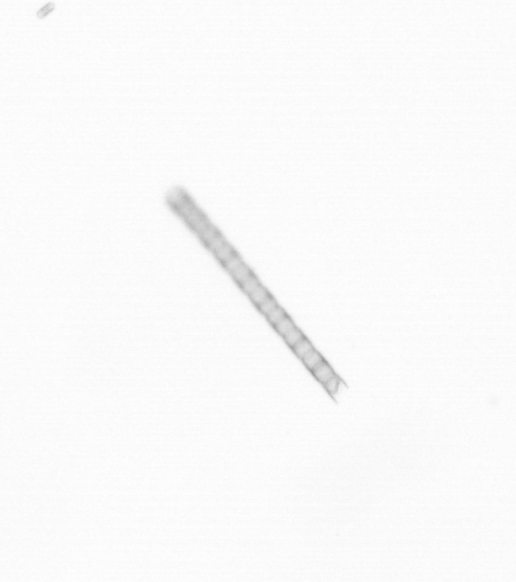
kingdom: Chromista
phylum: Ochrophyta
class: Bacillariophyceae
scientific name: Bacillariophyceae
